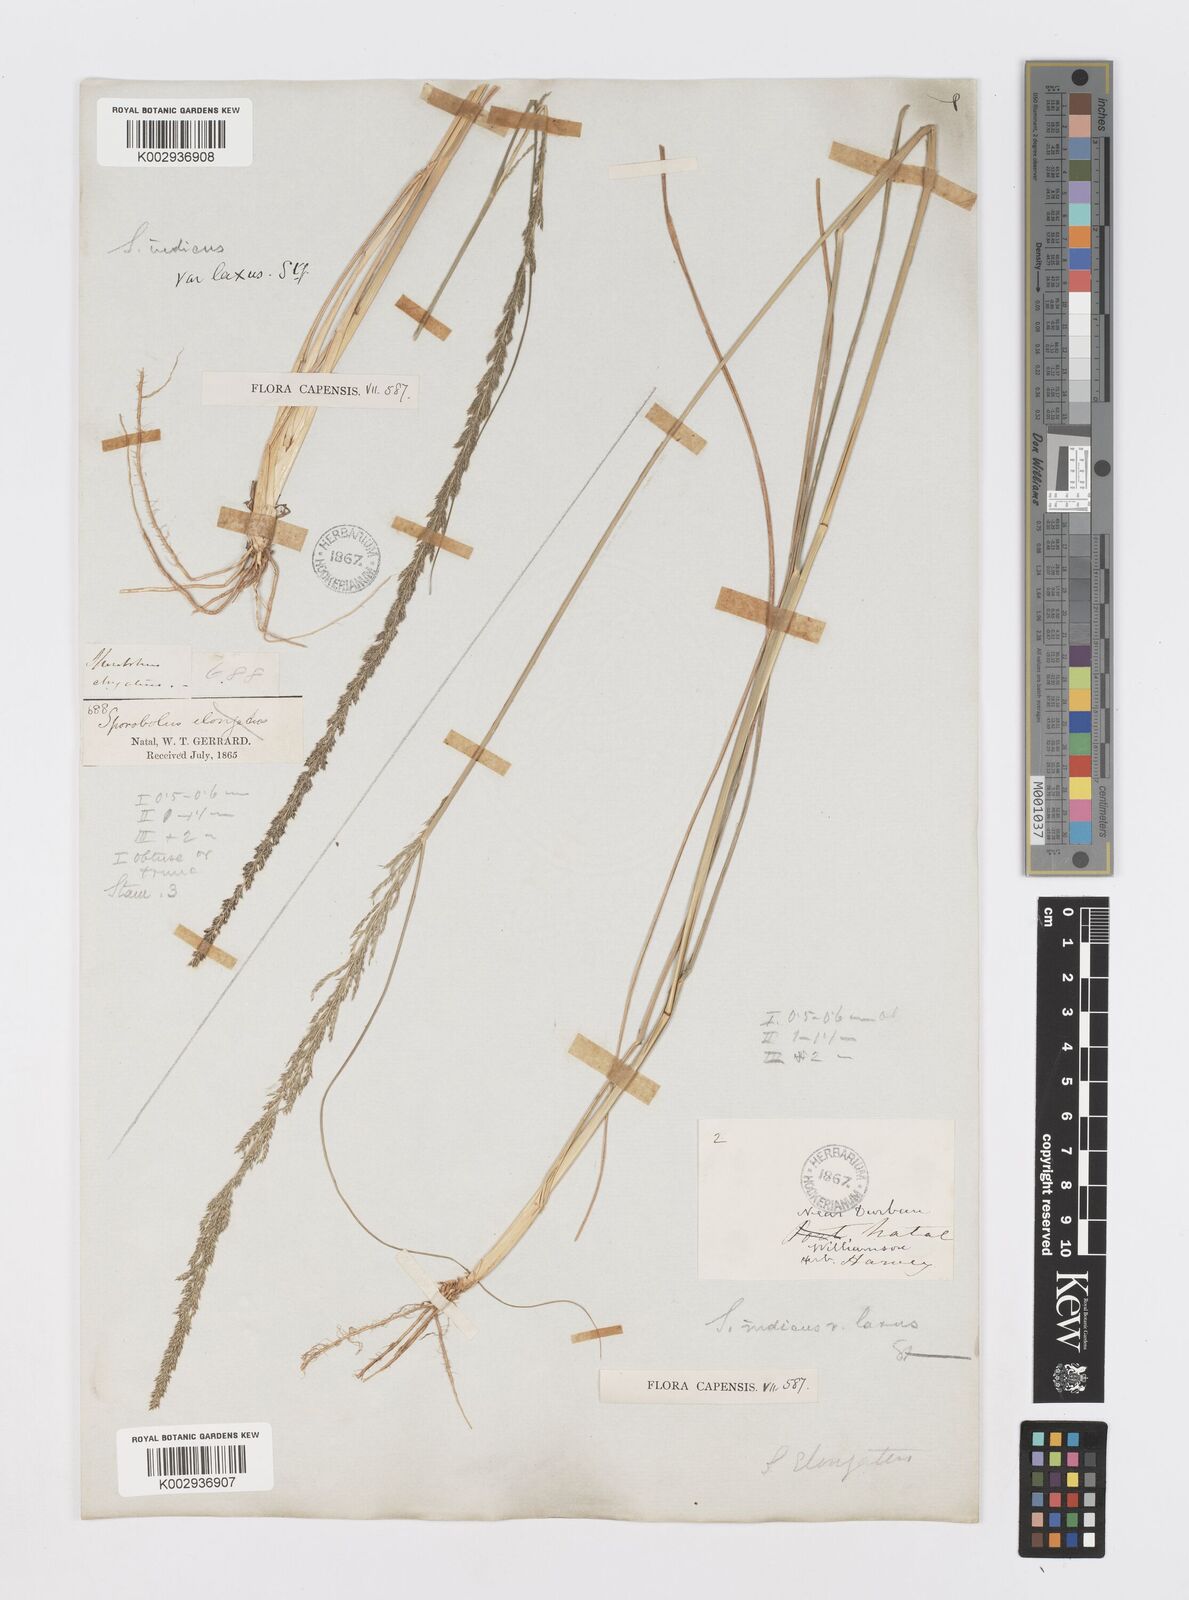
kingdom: Plantae
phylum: Tracheophyta
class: Liliopsida
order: Poales
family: Poaceae
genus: Sporobolus
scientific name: Sporobolus natalensis
